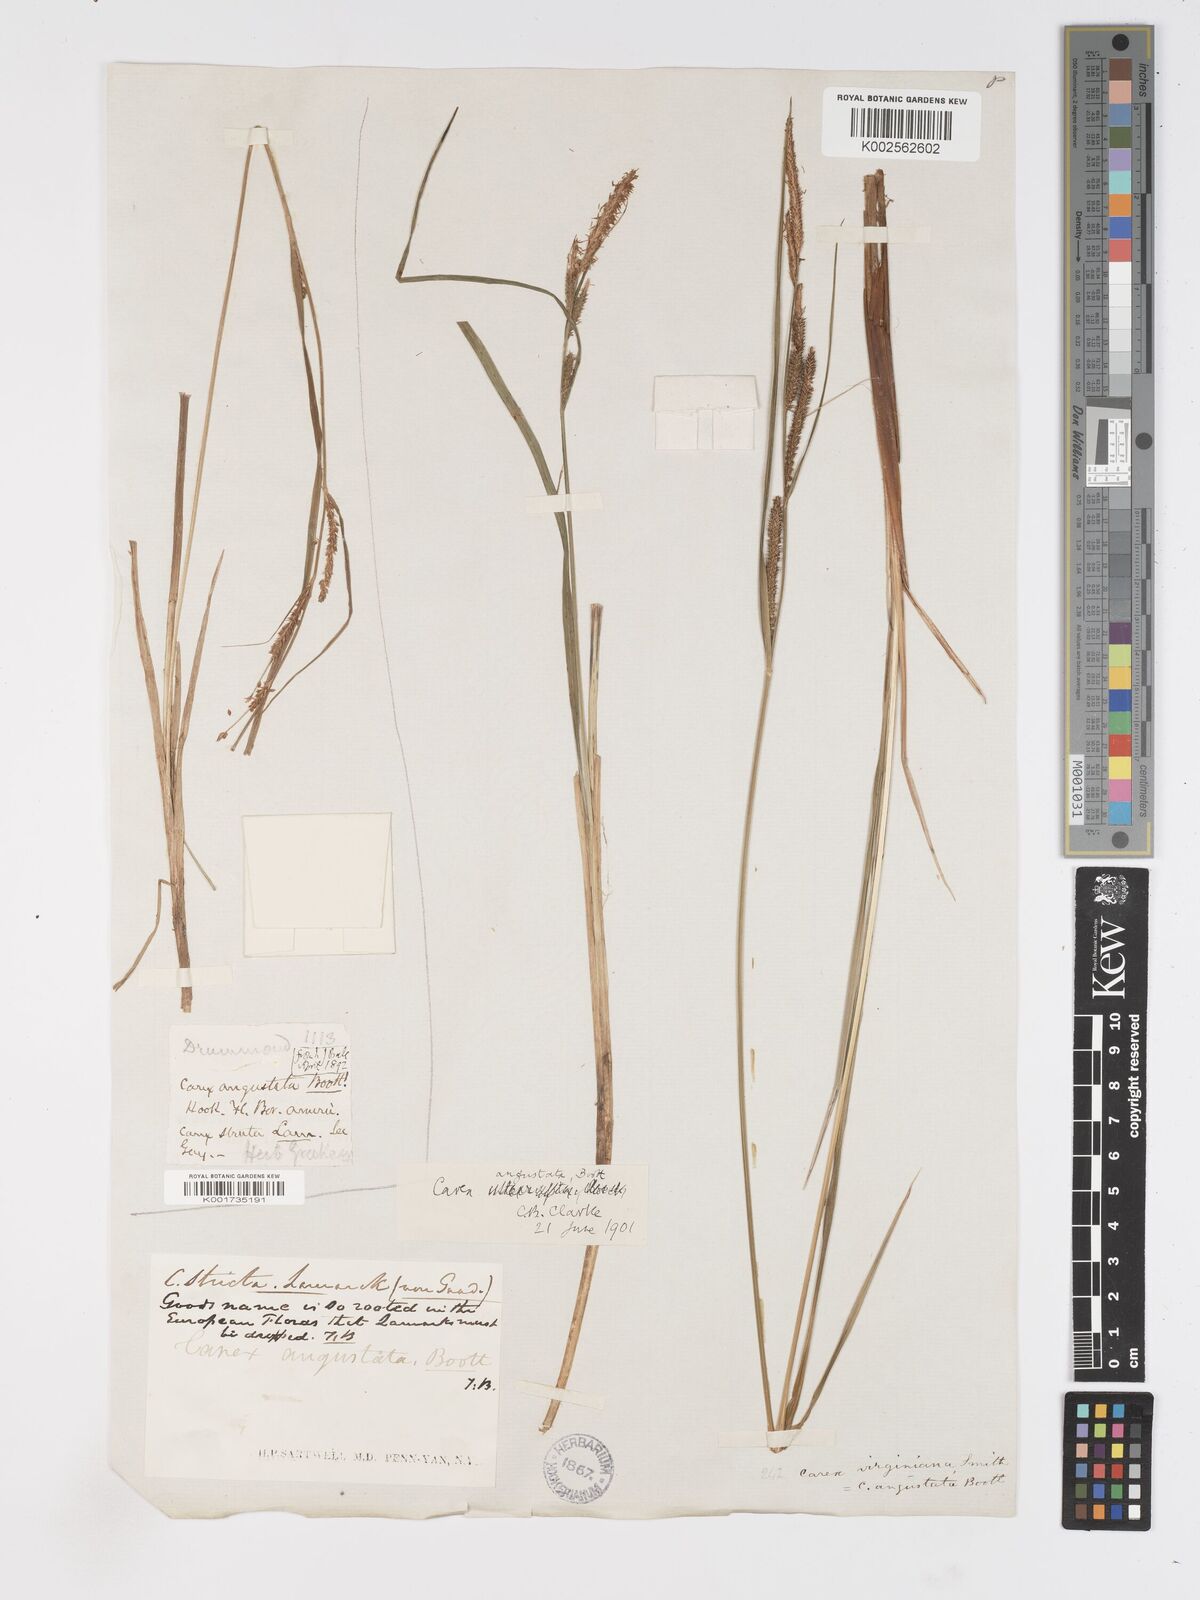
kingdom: Plantae
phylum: Tracheophyta
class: Liliopsida
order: Poales
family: Cyperaceae
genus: Carex
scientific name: Carex stricta
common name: Hummock sedge
